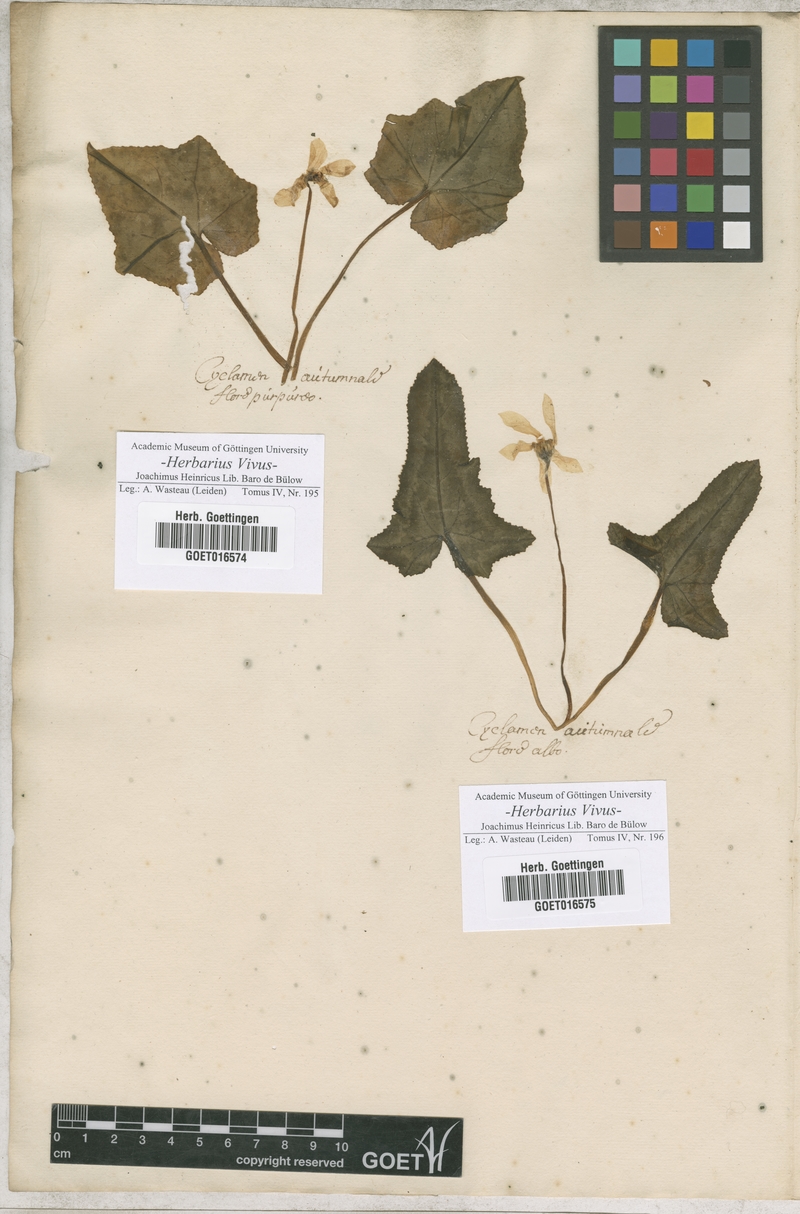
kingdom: Plantae
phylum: Tracheophyta
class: Magnoliopsida
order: Ericales
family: Primulaceae
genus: Cyclamen
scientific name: Cyclamen
